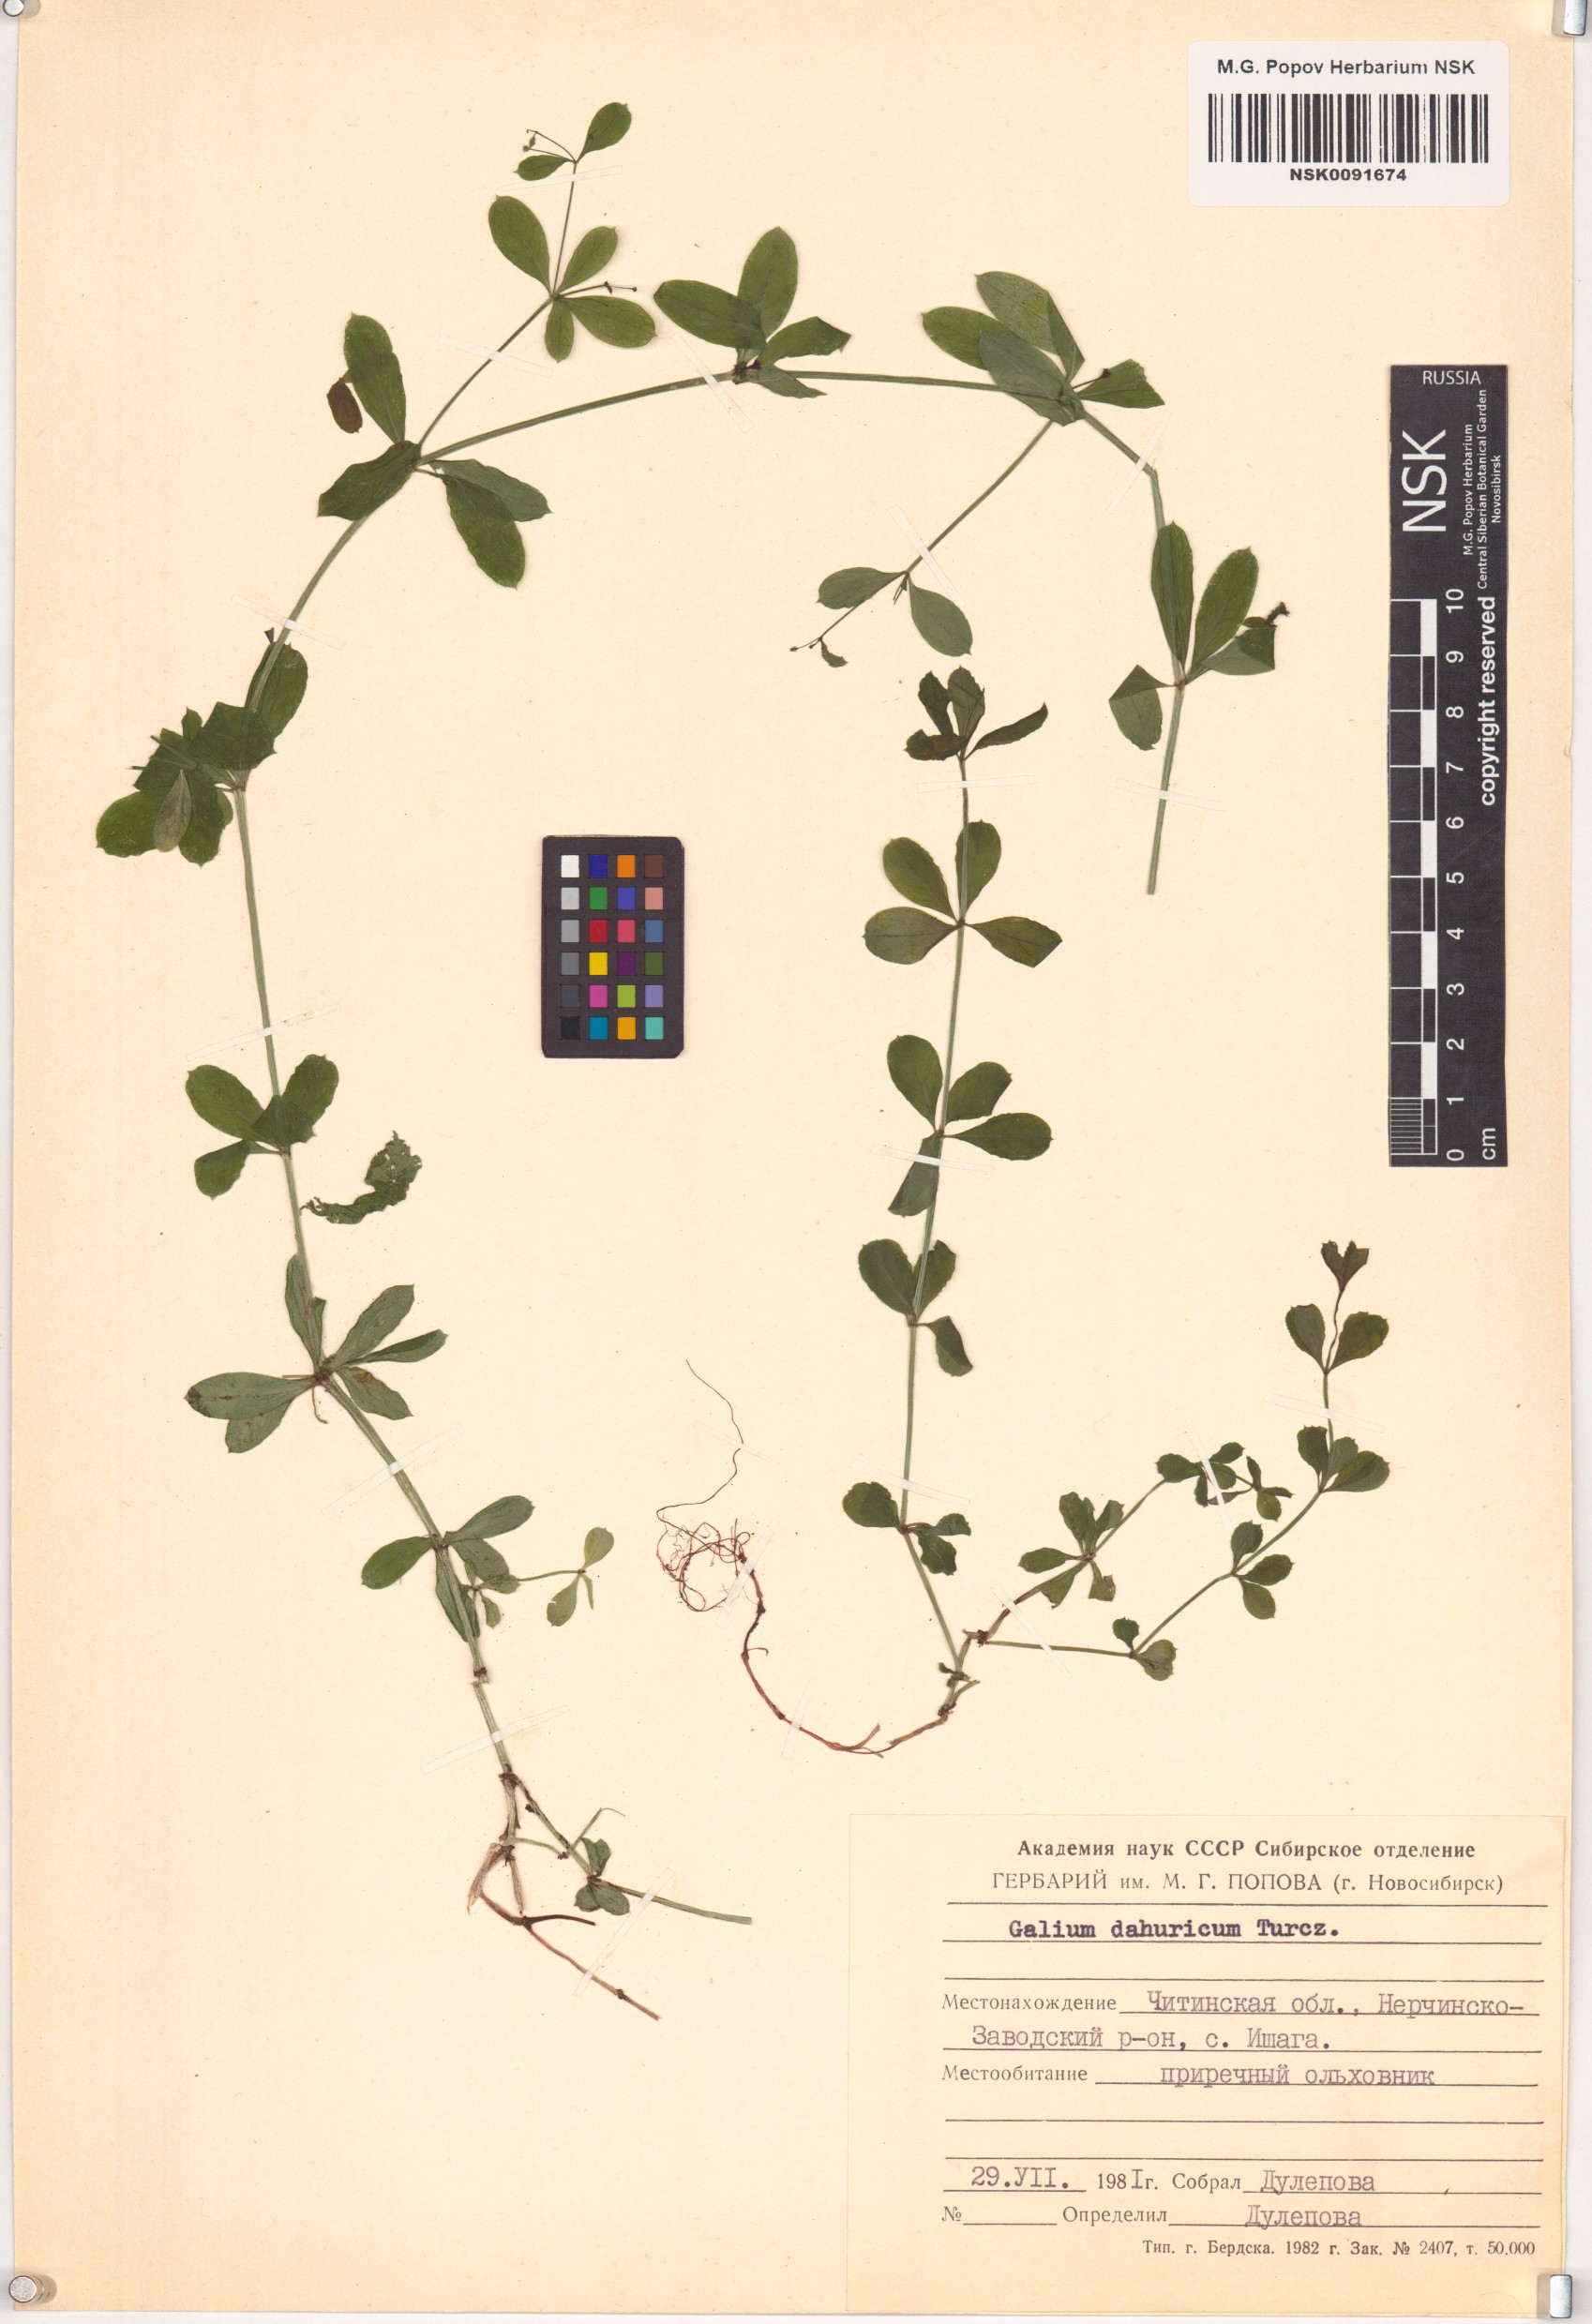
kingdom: Plantae
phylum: Tracheophyta
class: Magnoliopsida
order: Gentianales
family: Rubiaceae
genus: Galium
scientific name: Galium dahuricum
